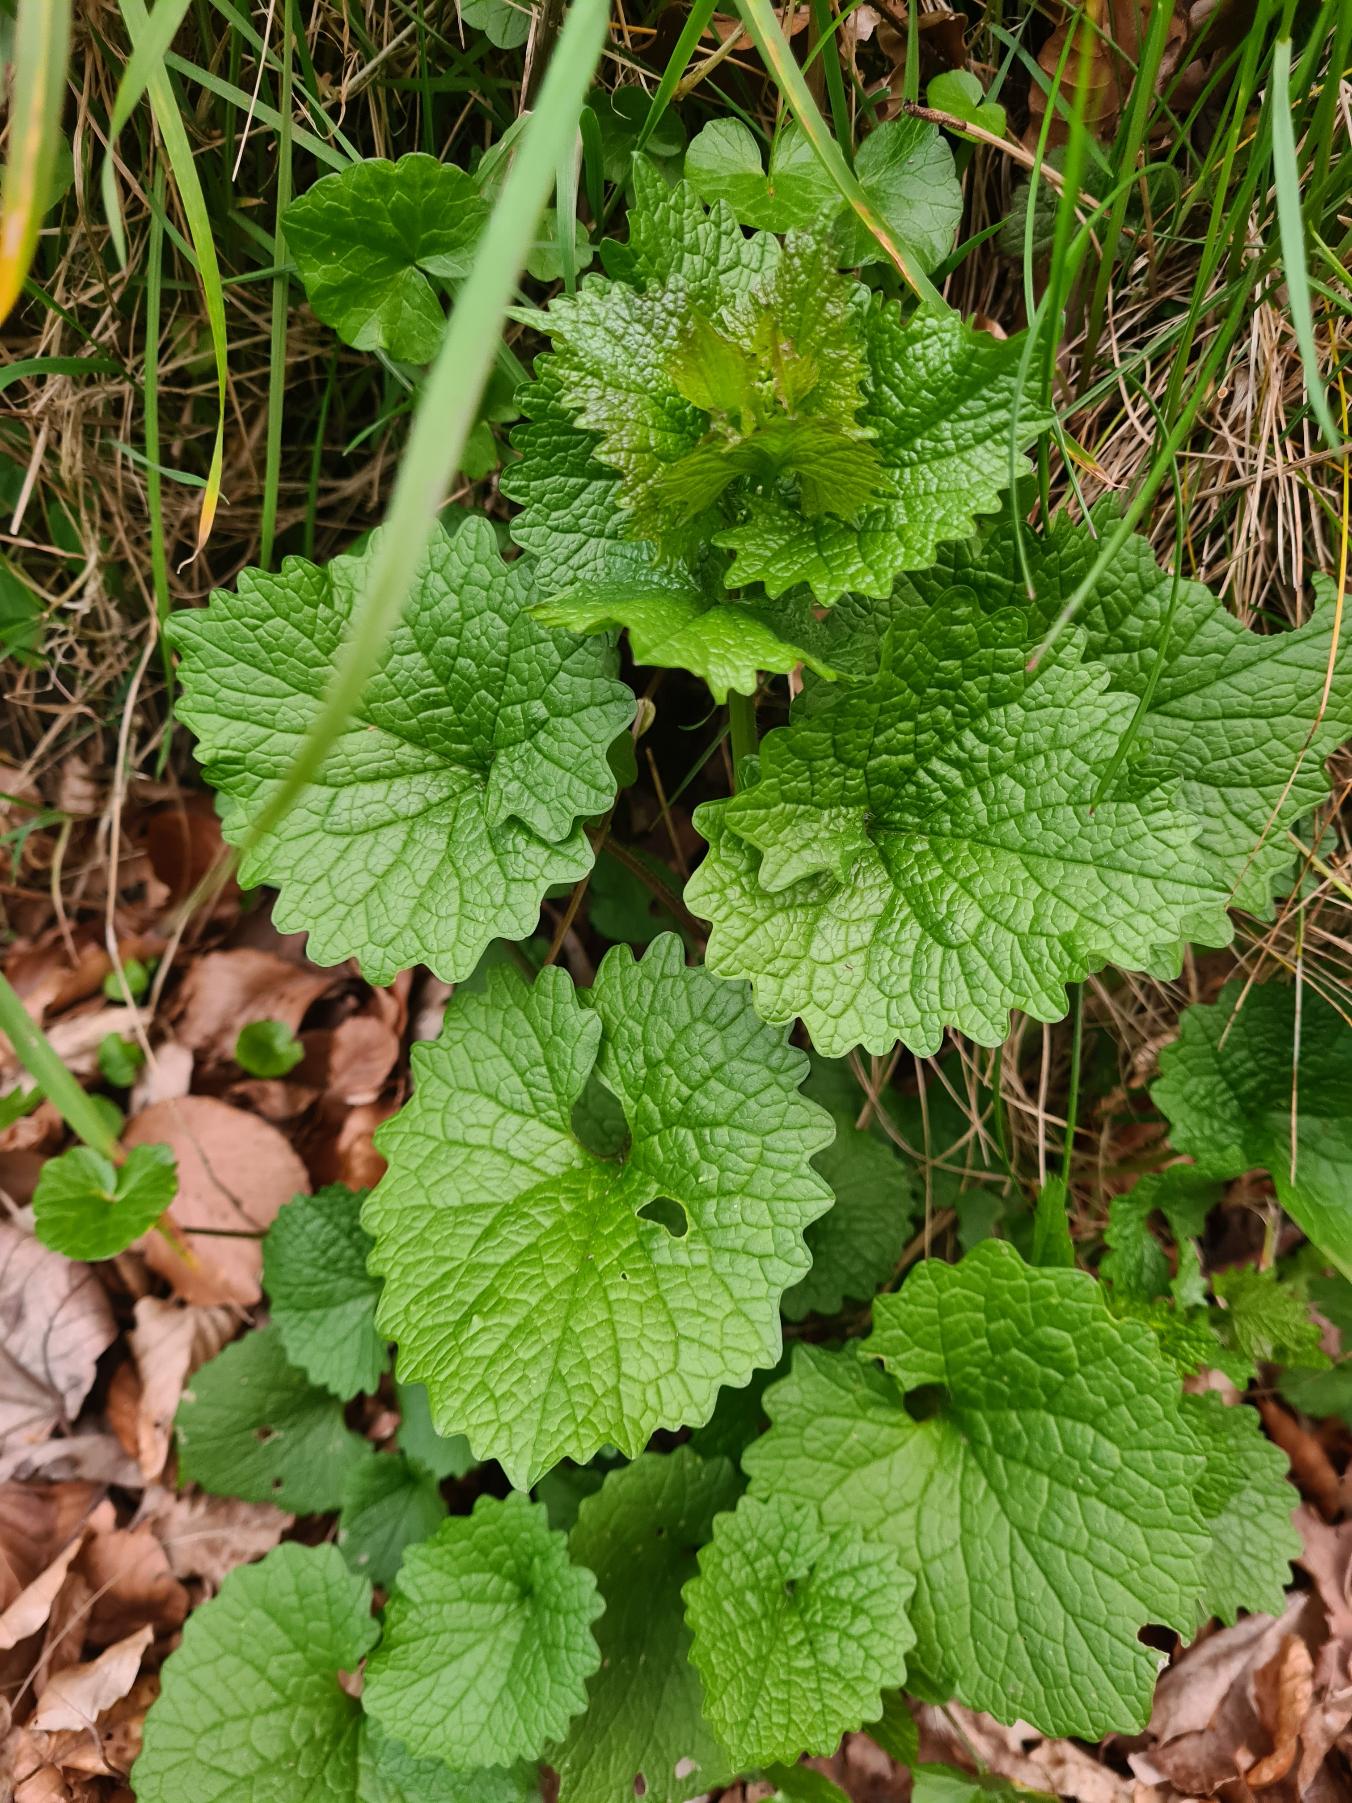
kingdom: Plantae
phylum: Tracheophyta
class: Magnoliopsida
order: Brassicales
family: Brassicaceae
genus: Alliaria
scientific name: Alliaria petiolata
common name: Løgkarse
